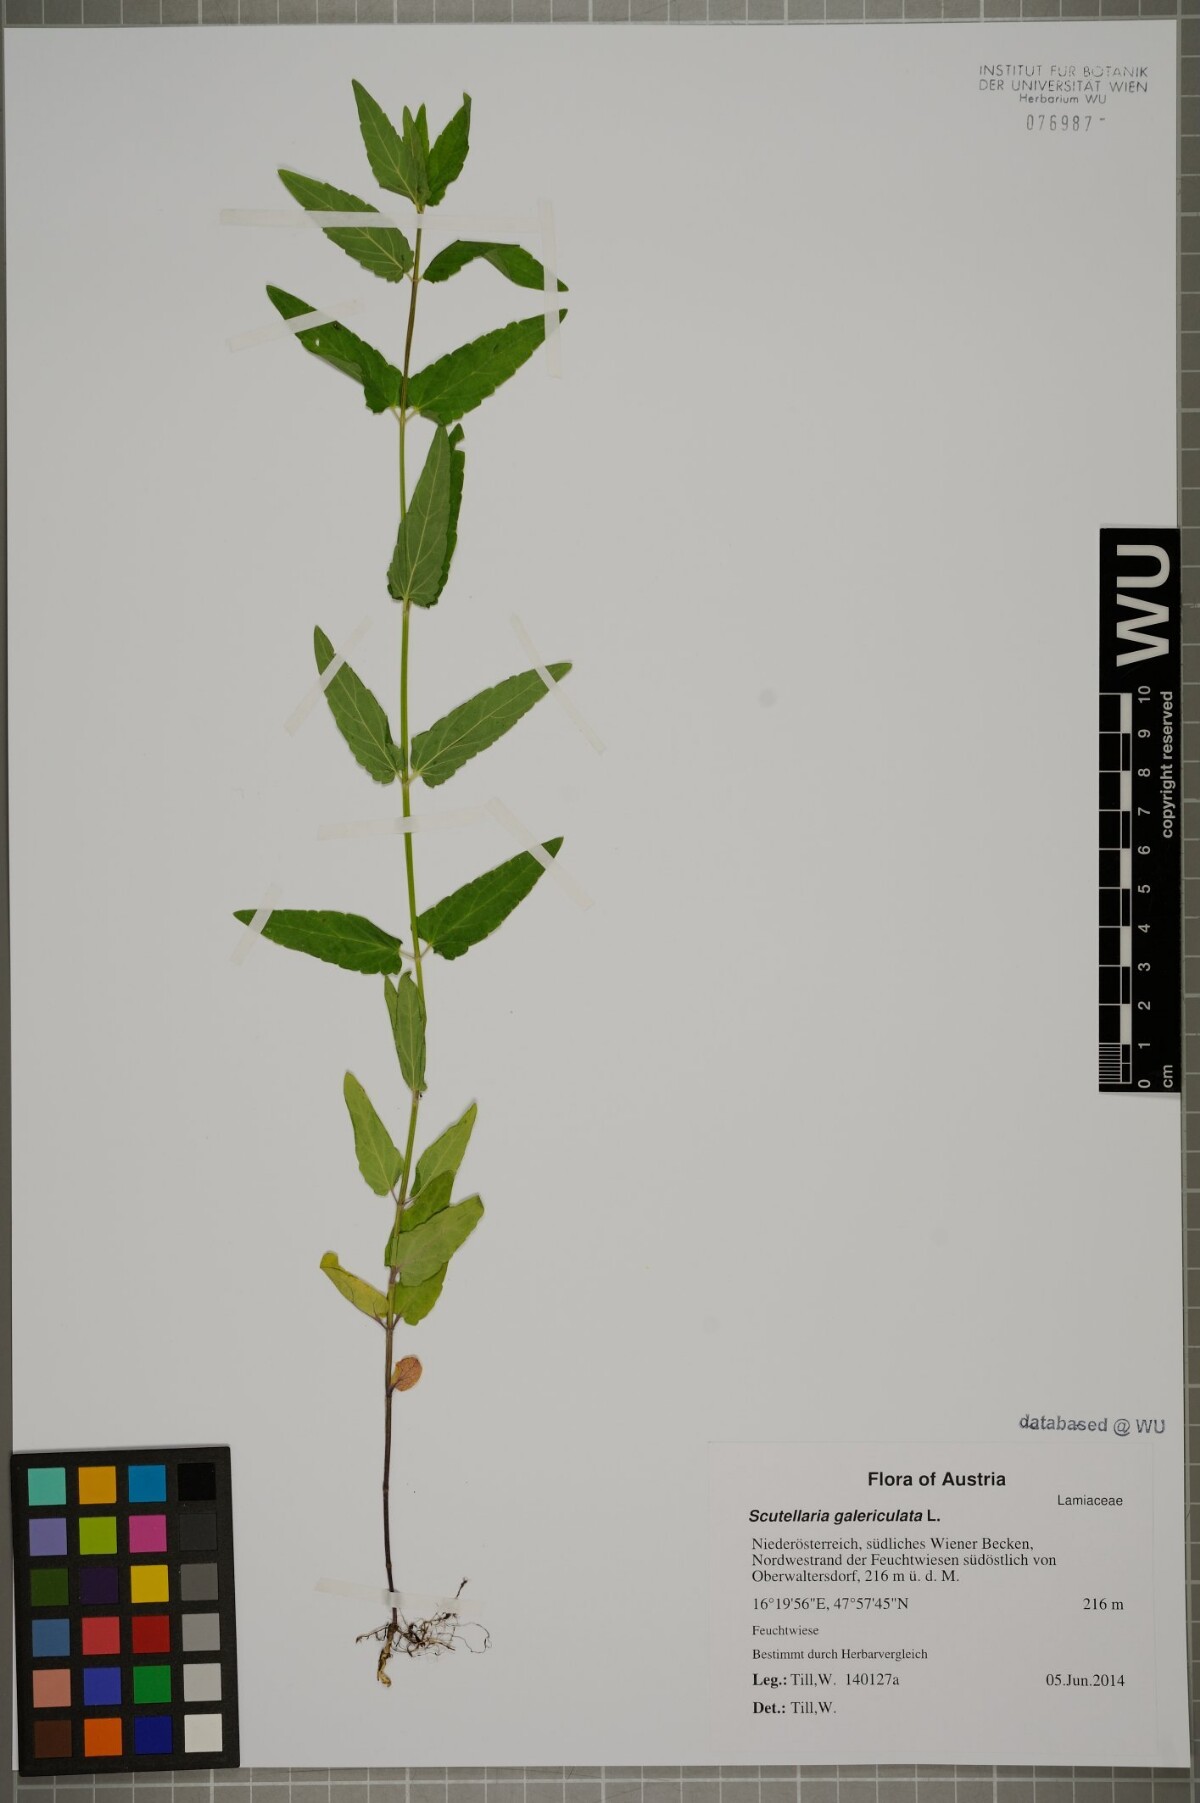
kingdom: Plantae
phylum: Tracheophyta
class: Magnoliopsida
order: Lamiales
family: Lamiaceae
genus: Scutellaria
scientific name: Scutellaria galericulata
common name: Skullcap
